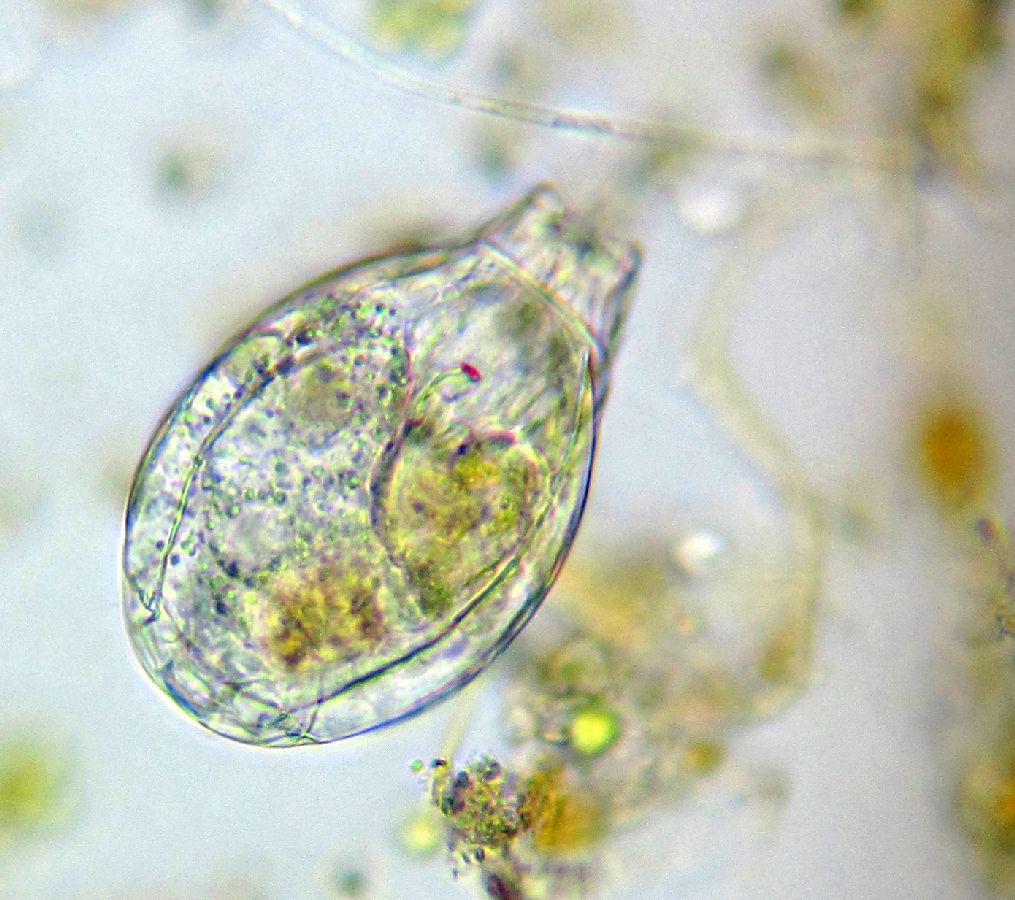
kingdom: Animalia
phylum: Rotifera
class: Eurotatoria
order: Ploima
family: Lecanidae
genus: Lecane
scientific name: Lecane
